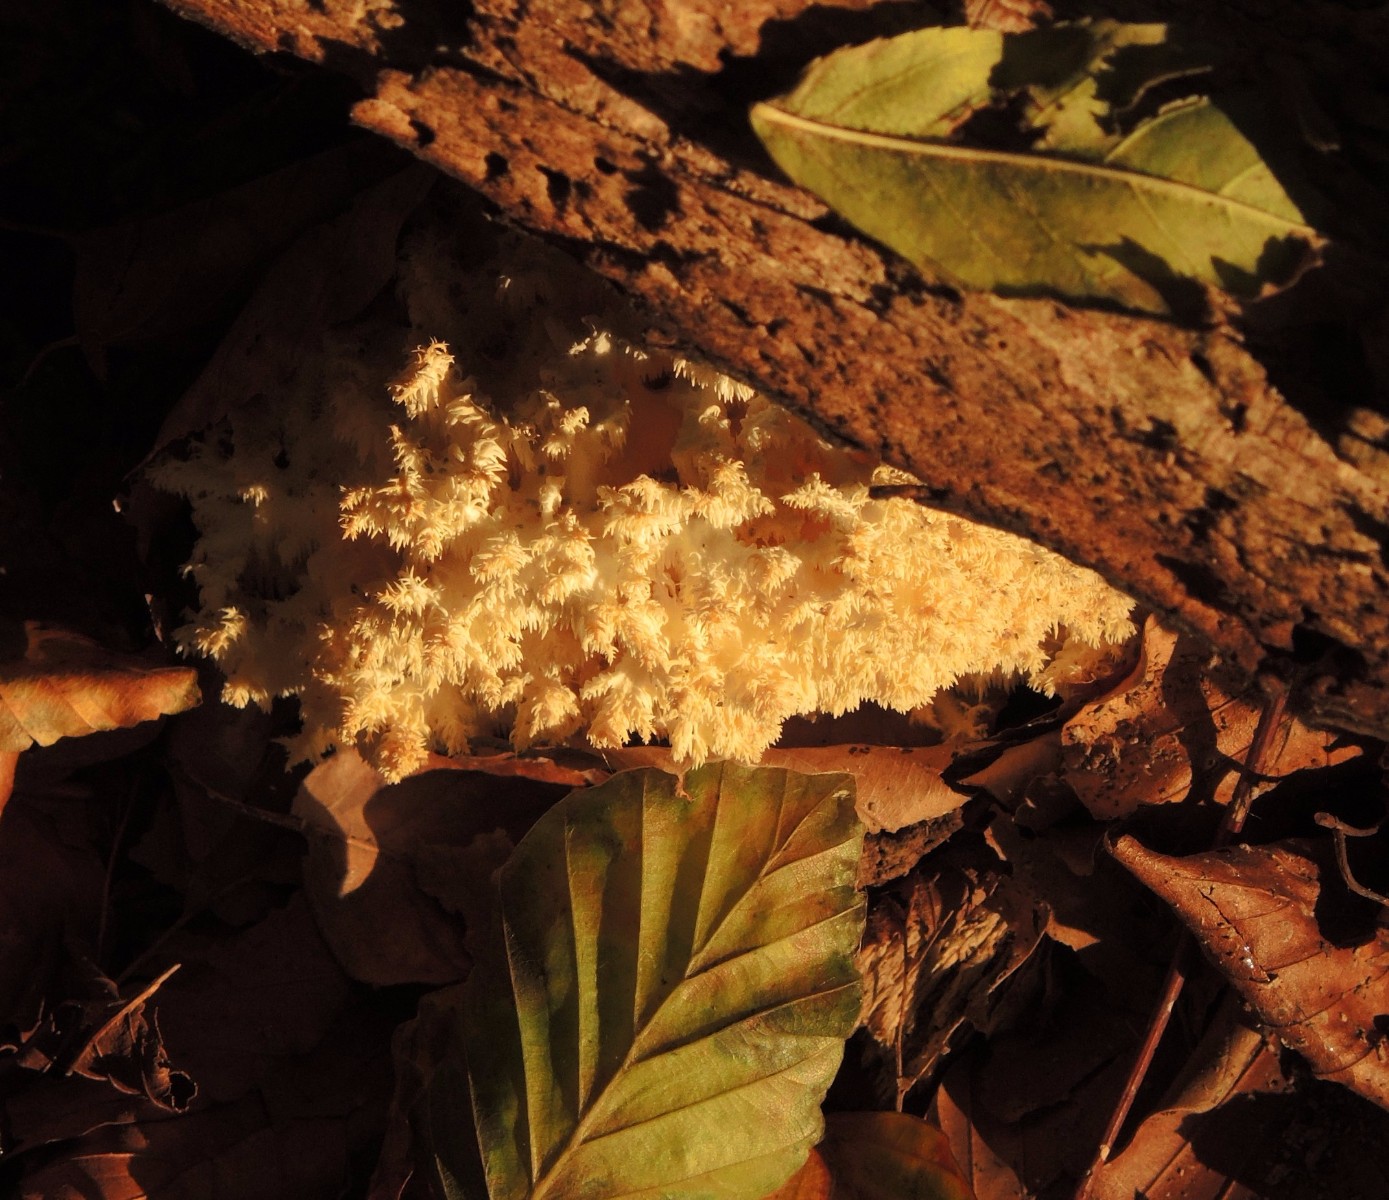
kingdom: Fungi
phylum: Basidiomycota
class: Agaricomycetes
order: Russulales
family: Hericiaceae
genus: Hericium
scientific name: Hericium coralloides
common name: koralpigsvamp
